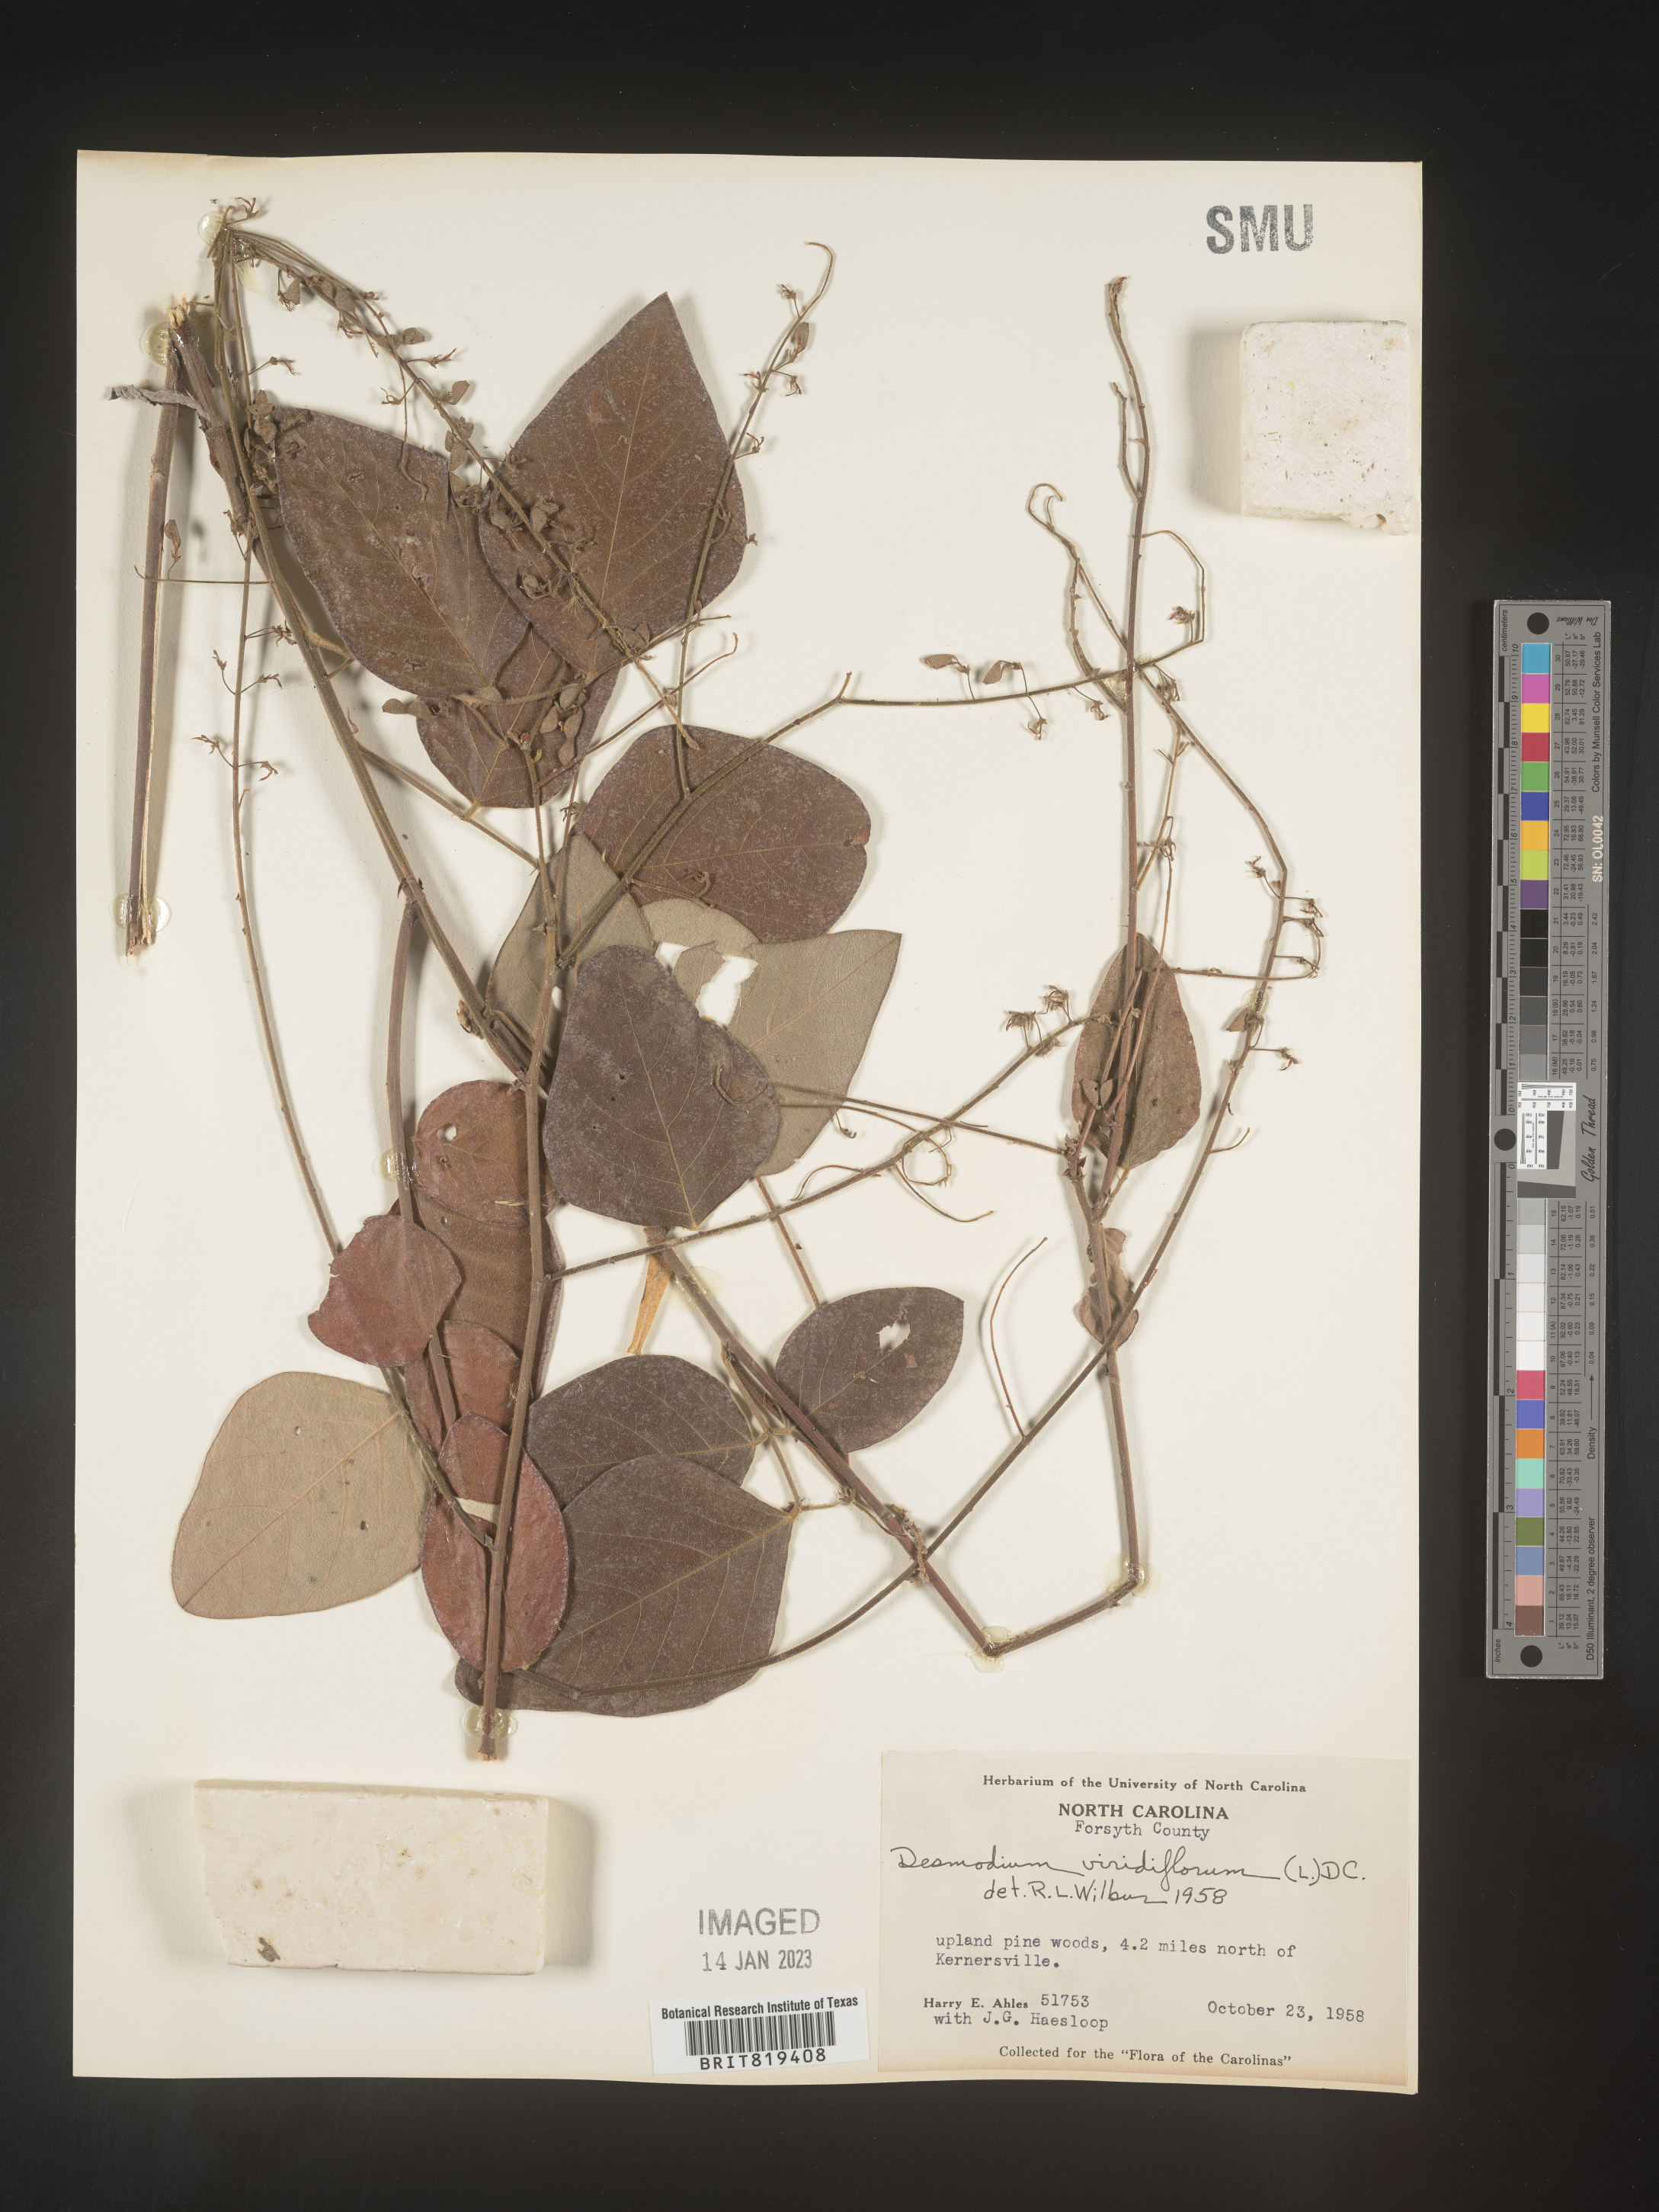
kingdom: Plantae
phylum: Tracheophyta
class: Magnoliopsida
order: Fabales
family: Fabaceae
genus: Desmodium
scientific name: Desmodium viridiflorum
